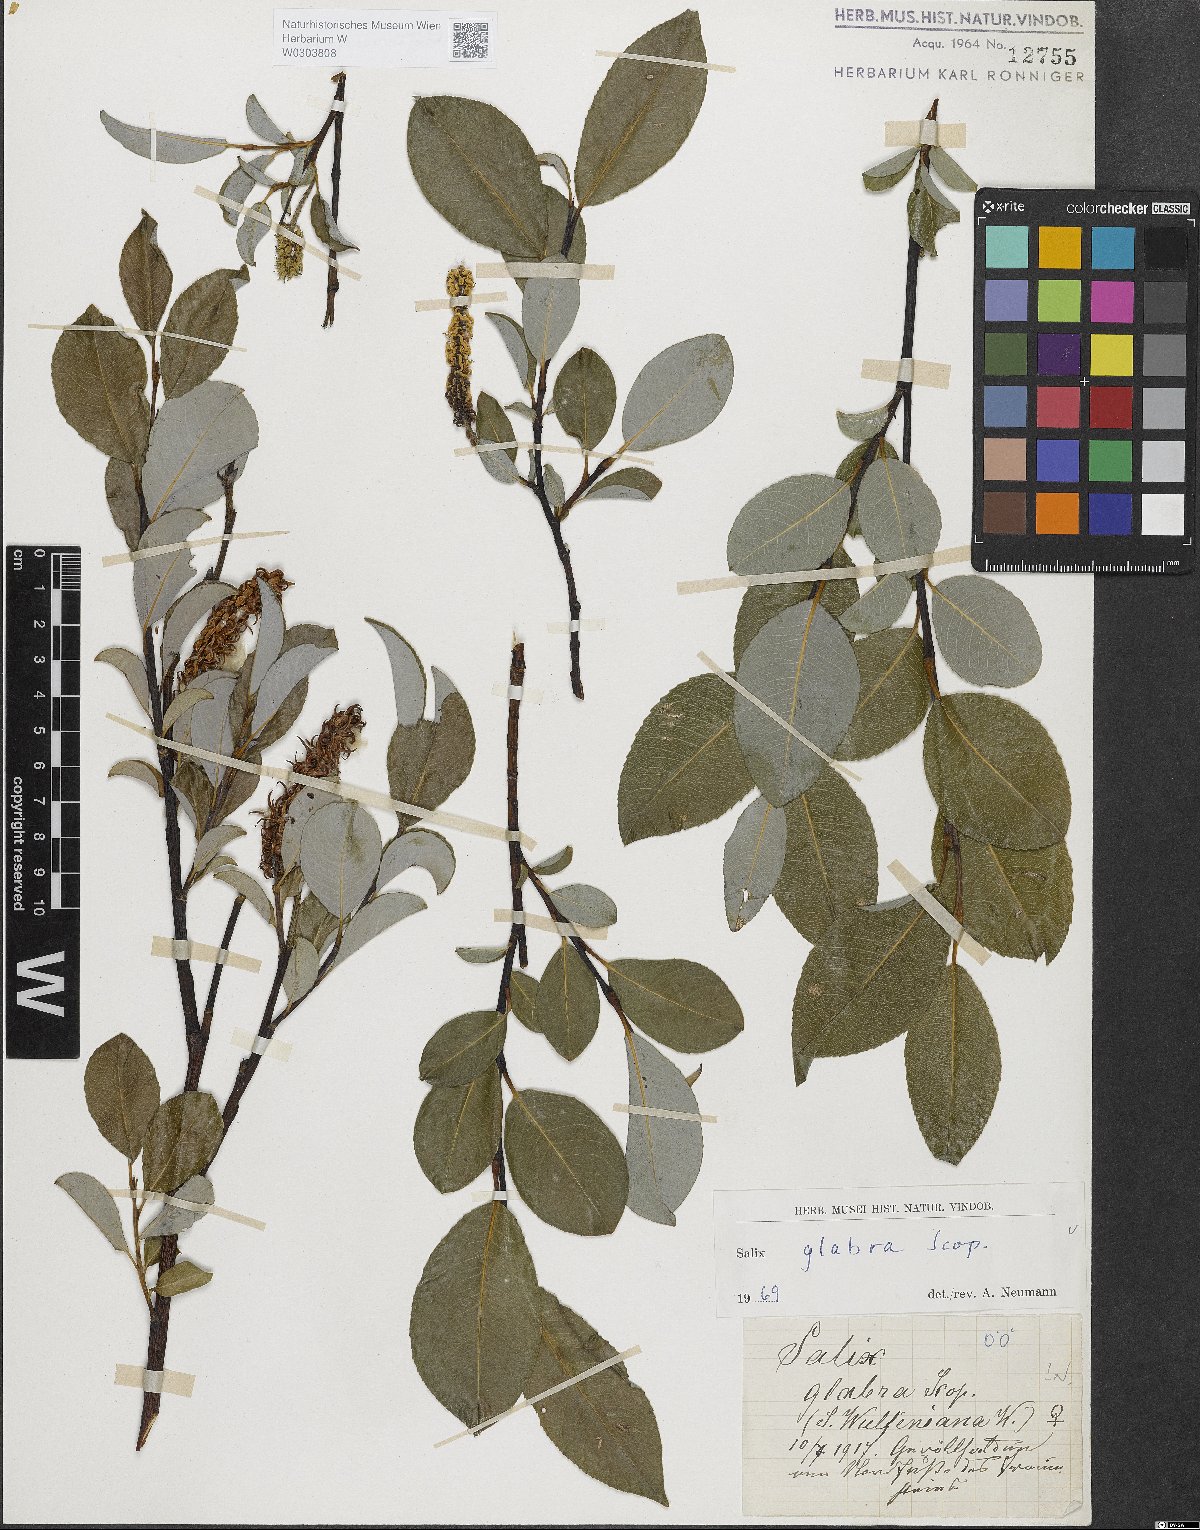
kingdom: Plantae
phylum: Tracheophyta
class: Magnoliopsida
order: Malpighiales
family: Salicaceae
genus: Salix
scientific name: Salix glabra
